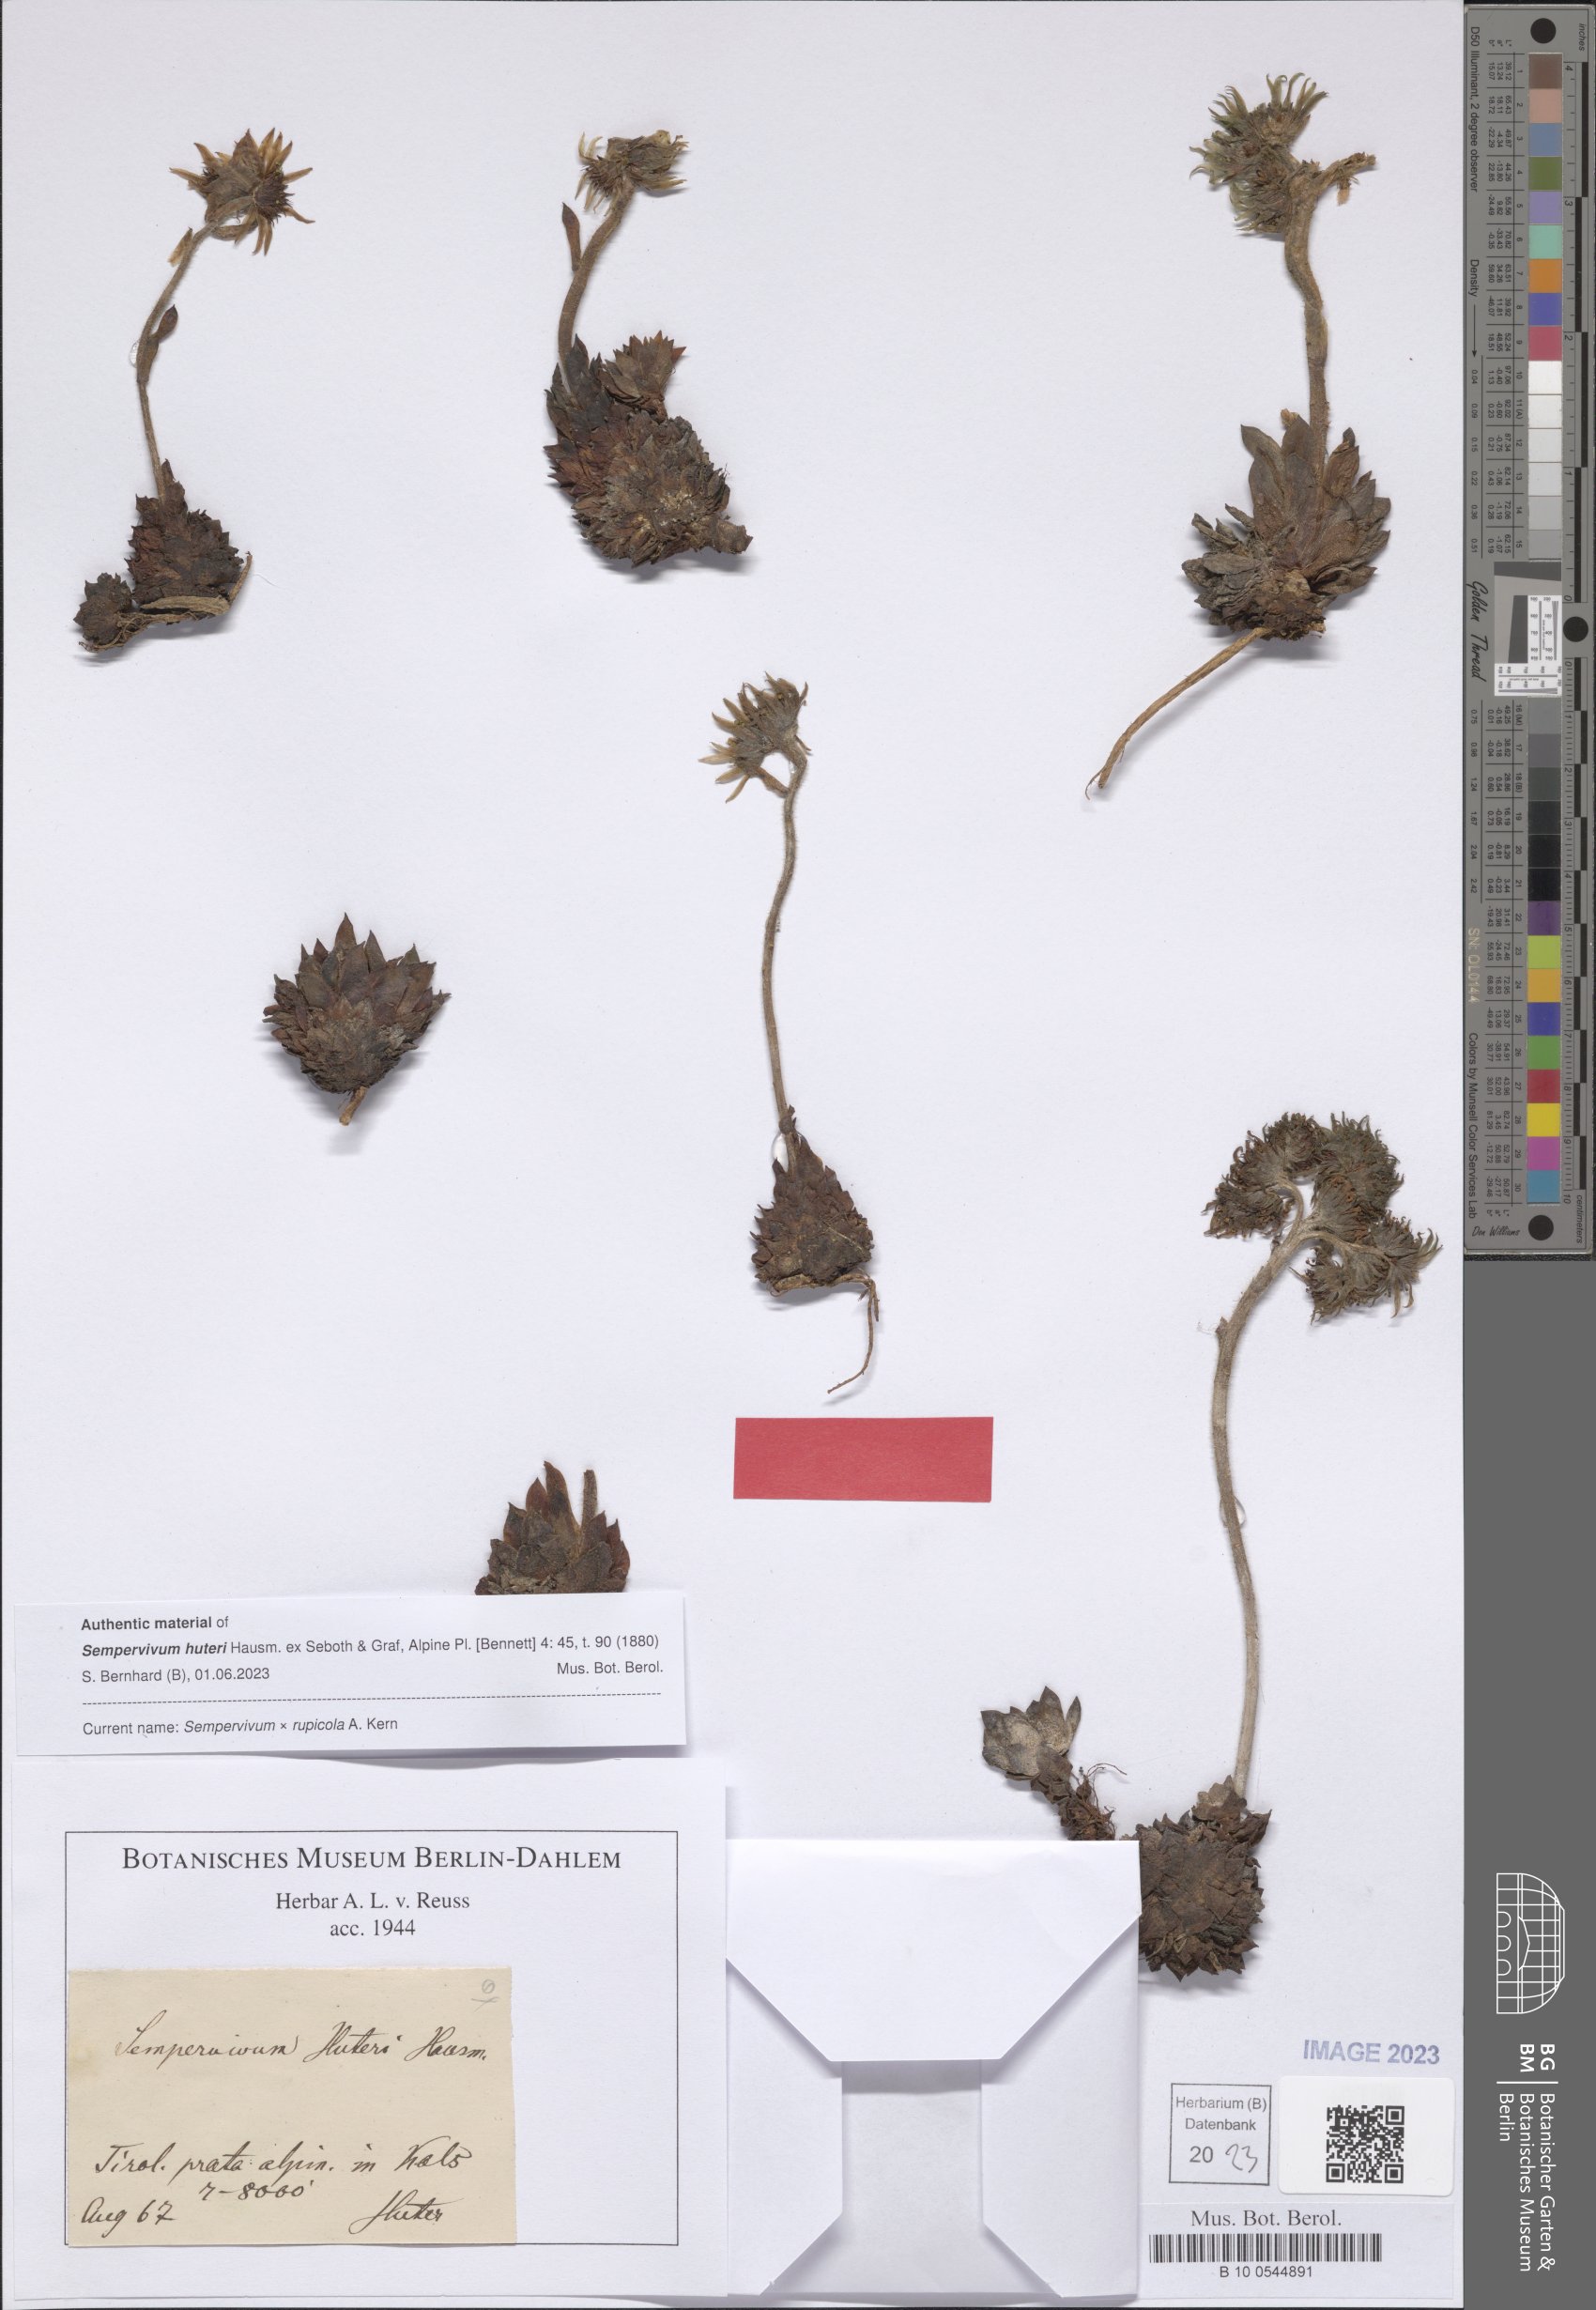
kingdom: Plantae
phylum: Tracheophyta
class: Magnoliopsida
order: Saxifragales
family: Crassulaceae
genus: Sempervivum
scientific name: Sempervivum rupicola
